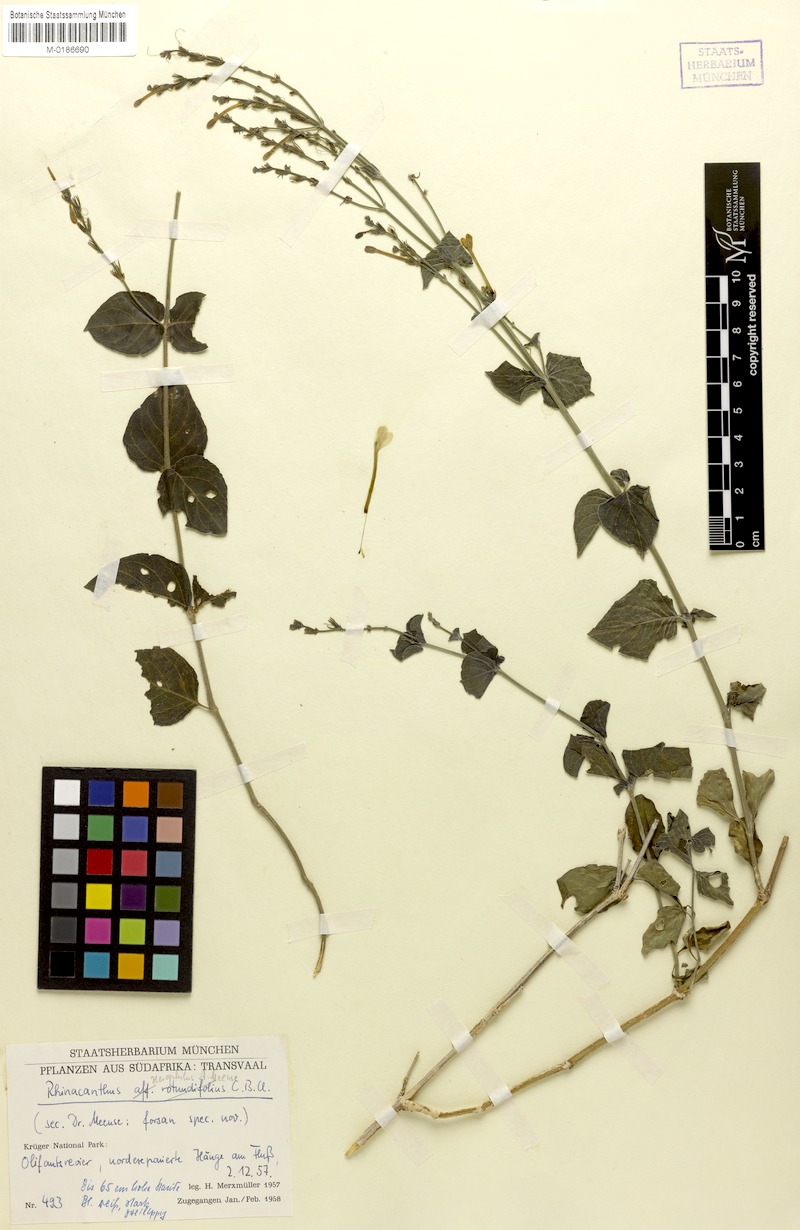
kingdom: Plantae
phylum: Tracheophyta
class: Magnoliopsida
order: Lamiales
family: Acanthaceae
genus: Rhinacanthus
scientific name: Rhinacanthus xerophilus
